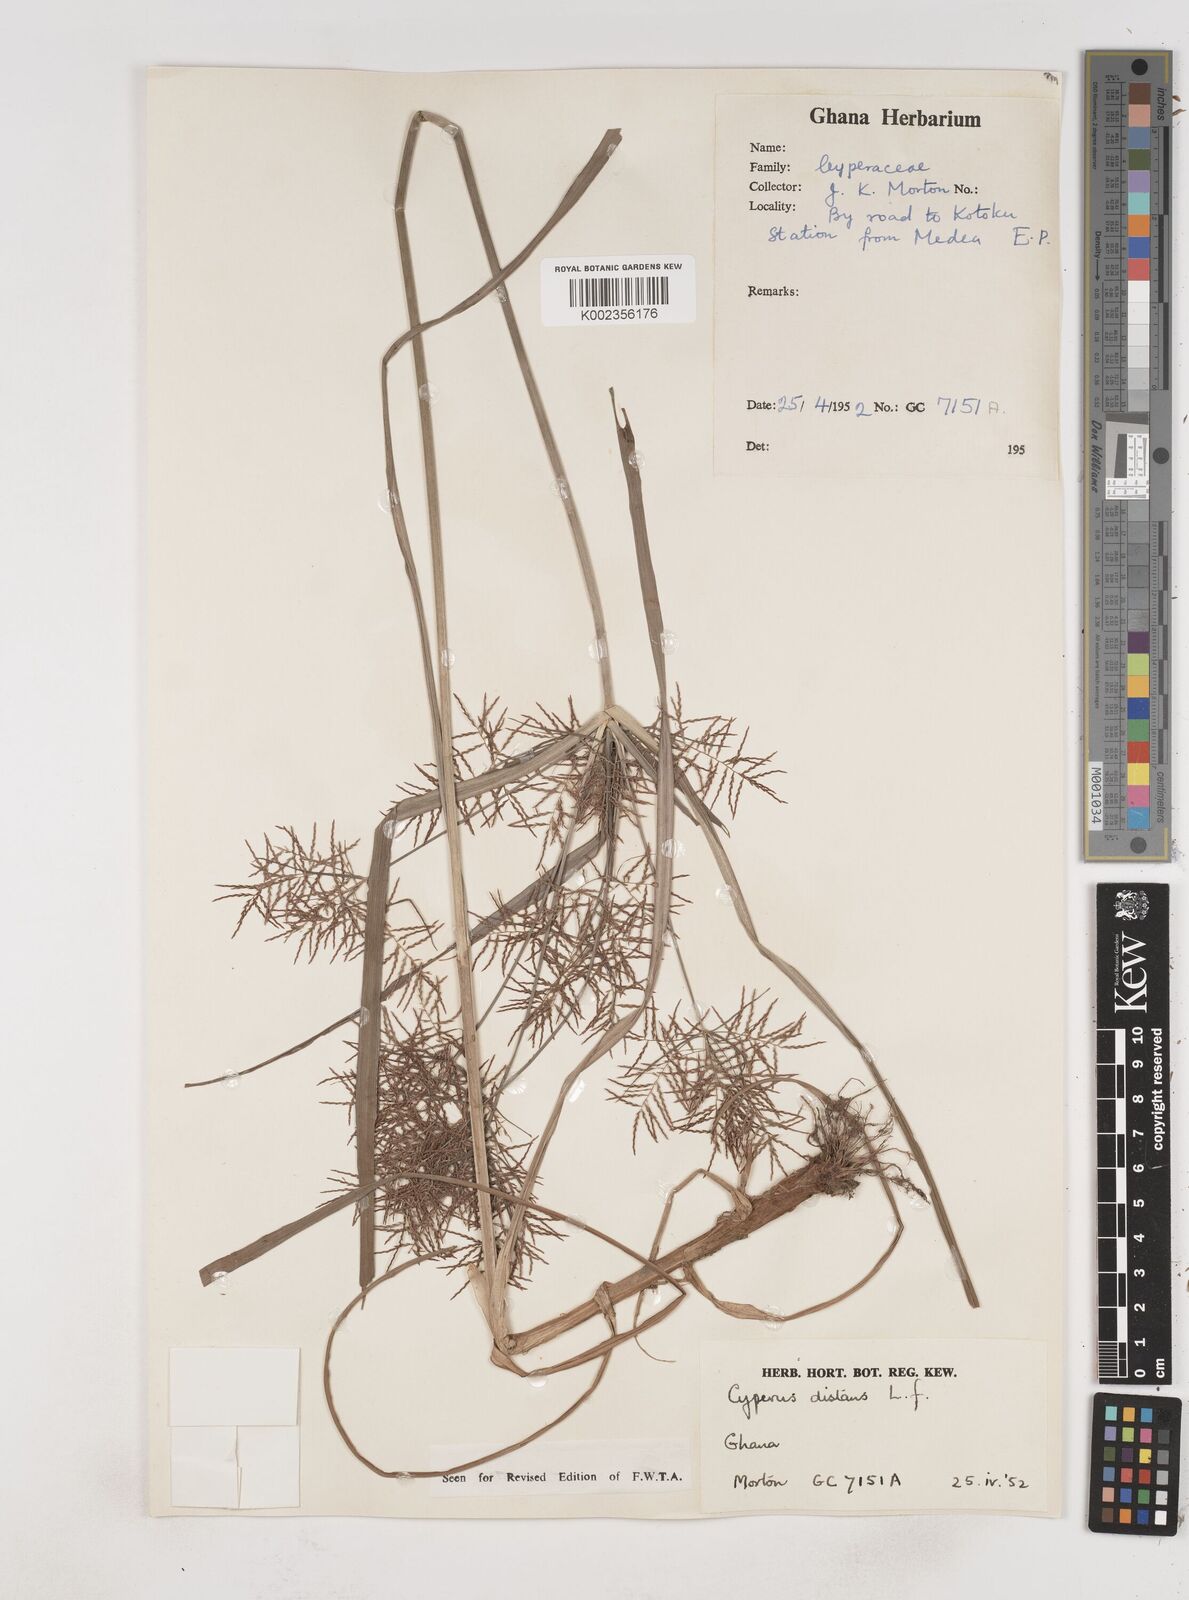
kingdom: Plantae
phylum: Tracheophyta
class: Liliopsida
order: Poales
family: Cyperaceae
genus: Cyperus
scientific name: Cyperus distans
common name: Slender cyperus
